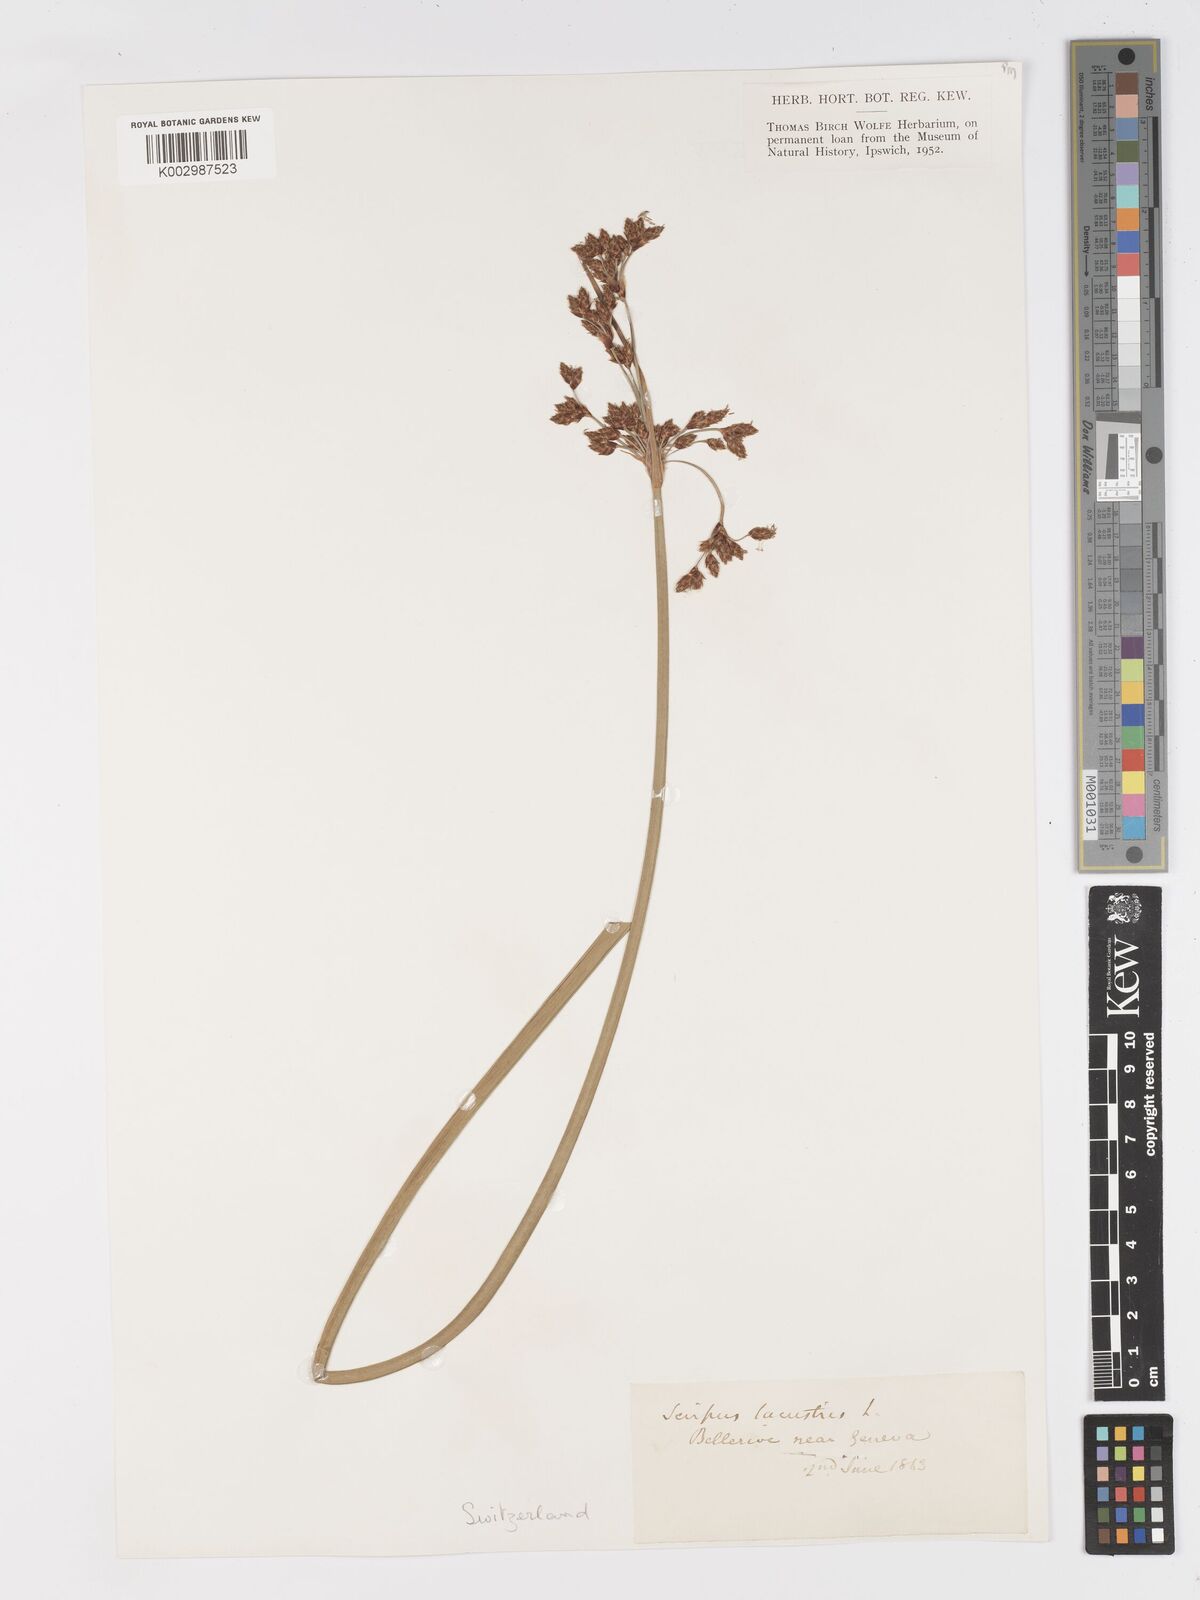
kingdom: Plantae
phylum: Tracheophyta
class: Liliopsida
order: Poales
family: Cyperaceae
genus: Schoenoplectus
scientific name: Schoenoplectus lacustris
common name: Common club-rush
